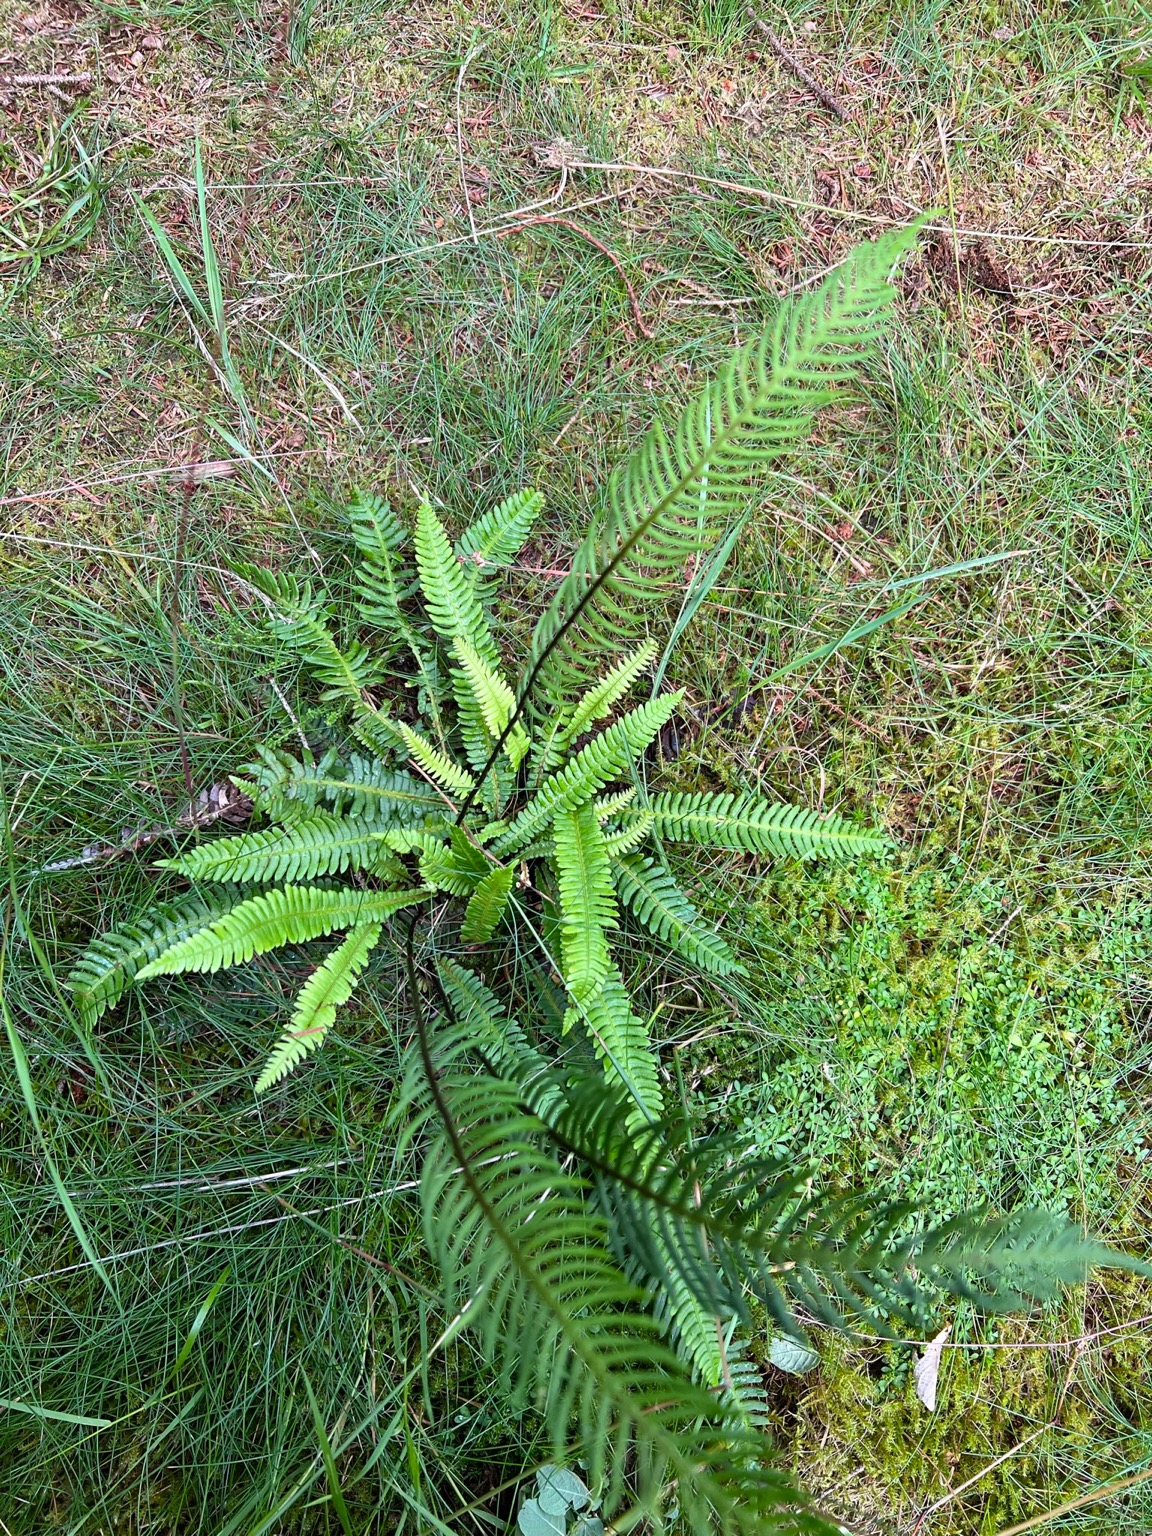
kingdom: Plantae
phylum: Tracheophyta
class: Polypodiopsida
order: Polypodiales
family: Blechnaceae
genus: Struthiopteris
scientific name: Struthiopteris spicant
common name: Kambregne
